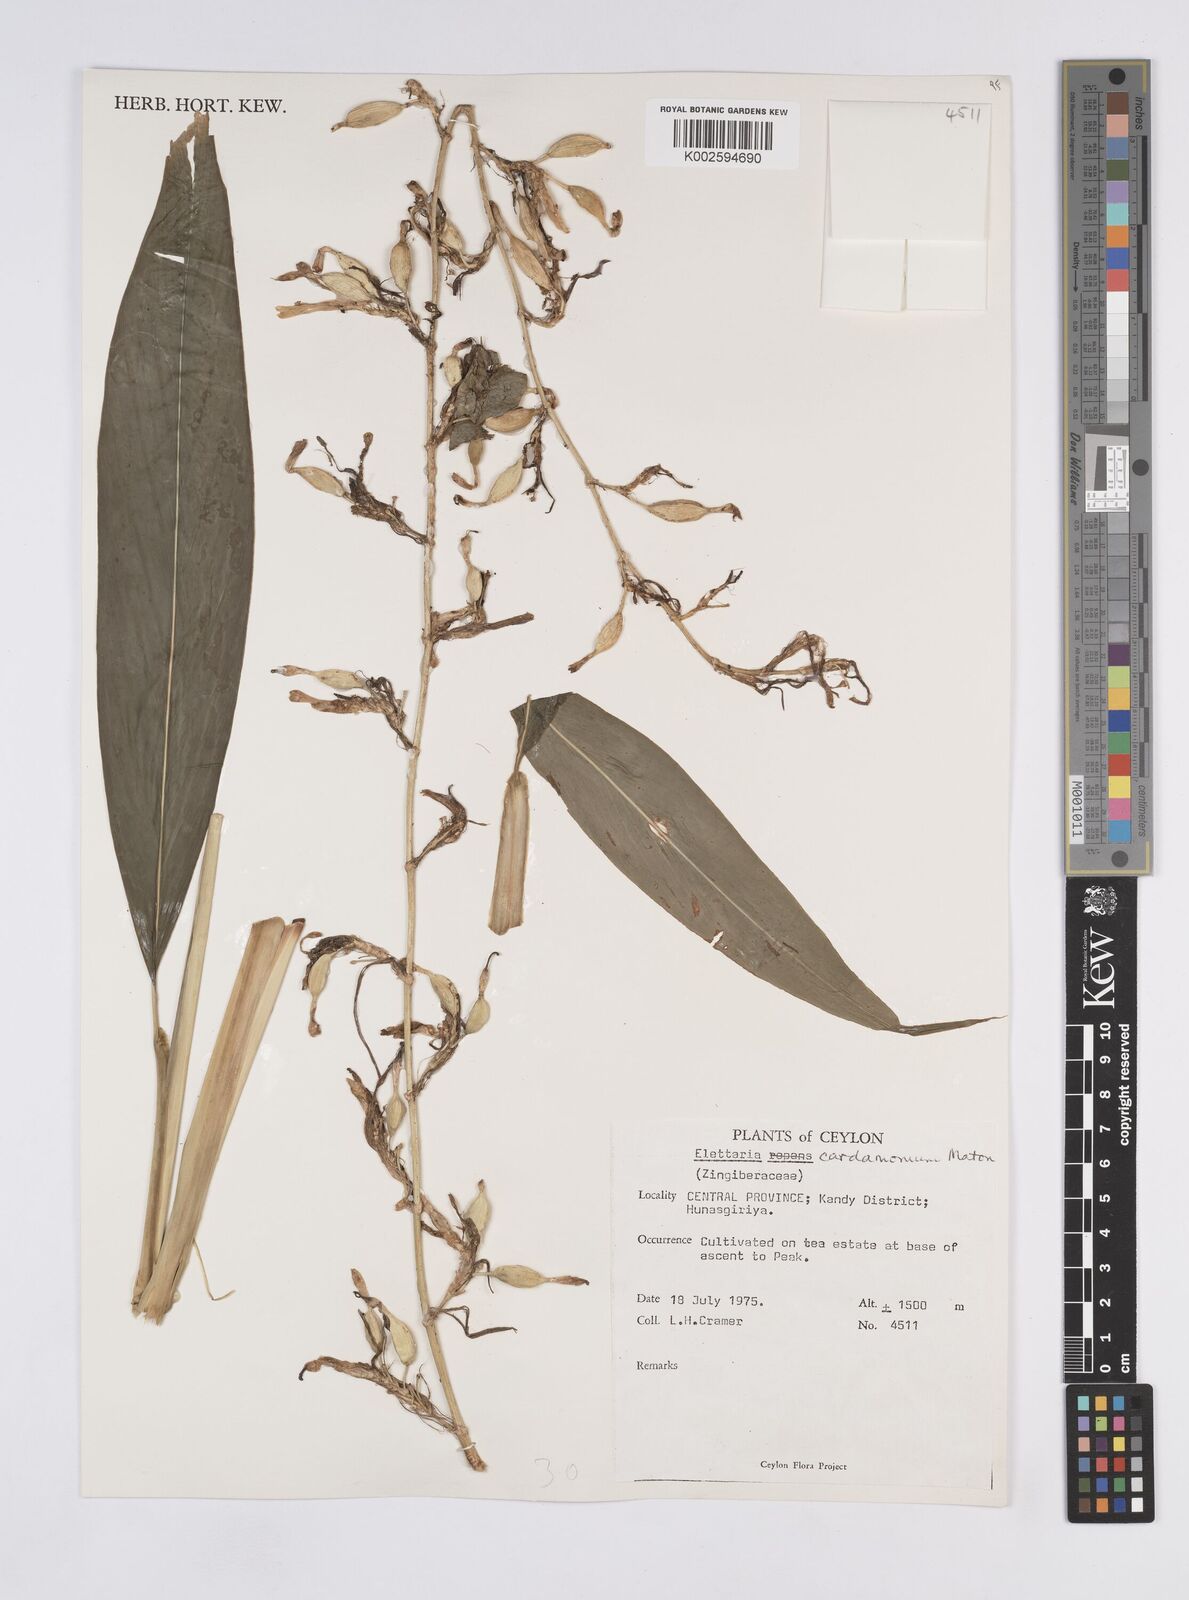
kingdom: Plantae
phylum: Tracheophyta
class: Liliopsida
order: Zingiberales
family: Zingiberaceae
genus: Elettaria
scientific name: Elettaria cardamomum
